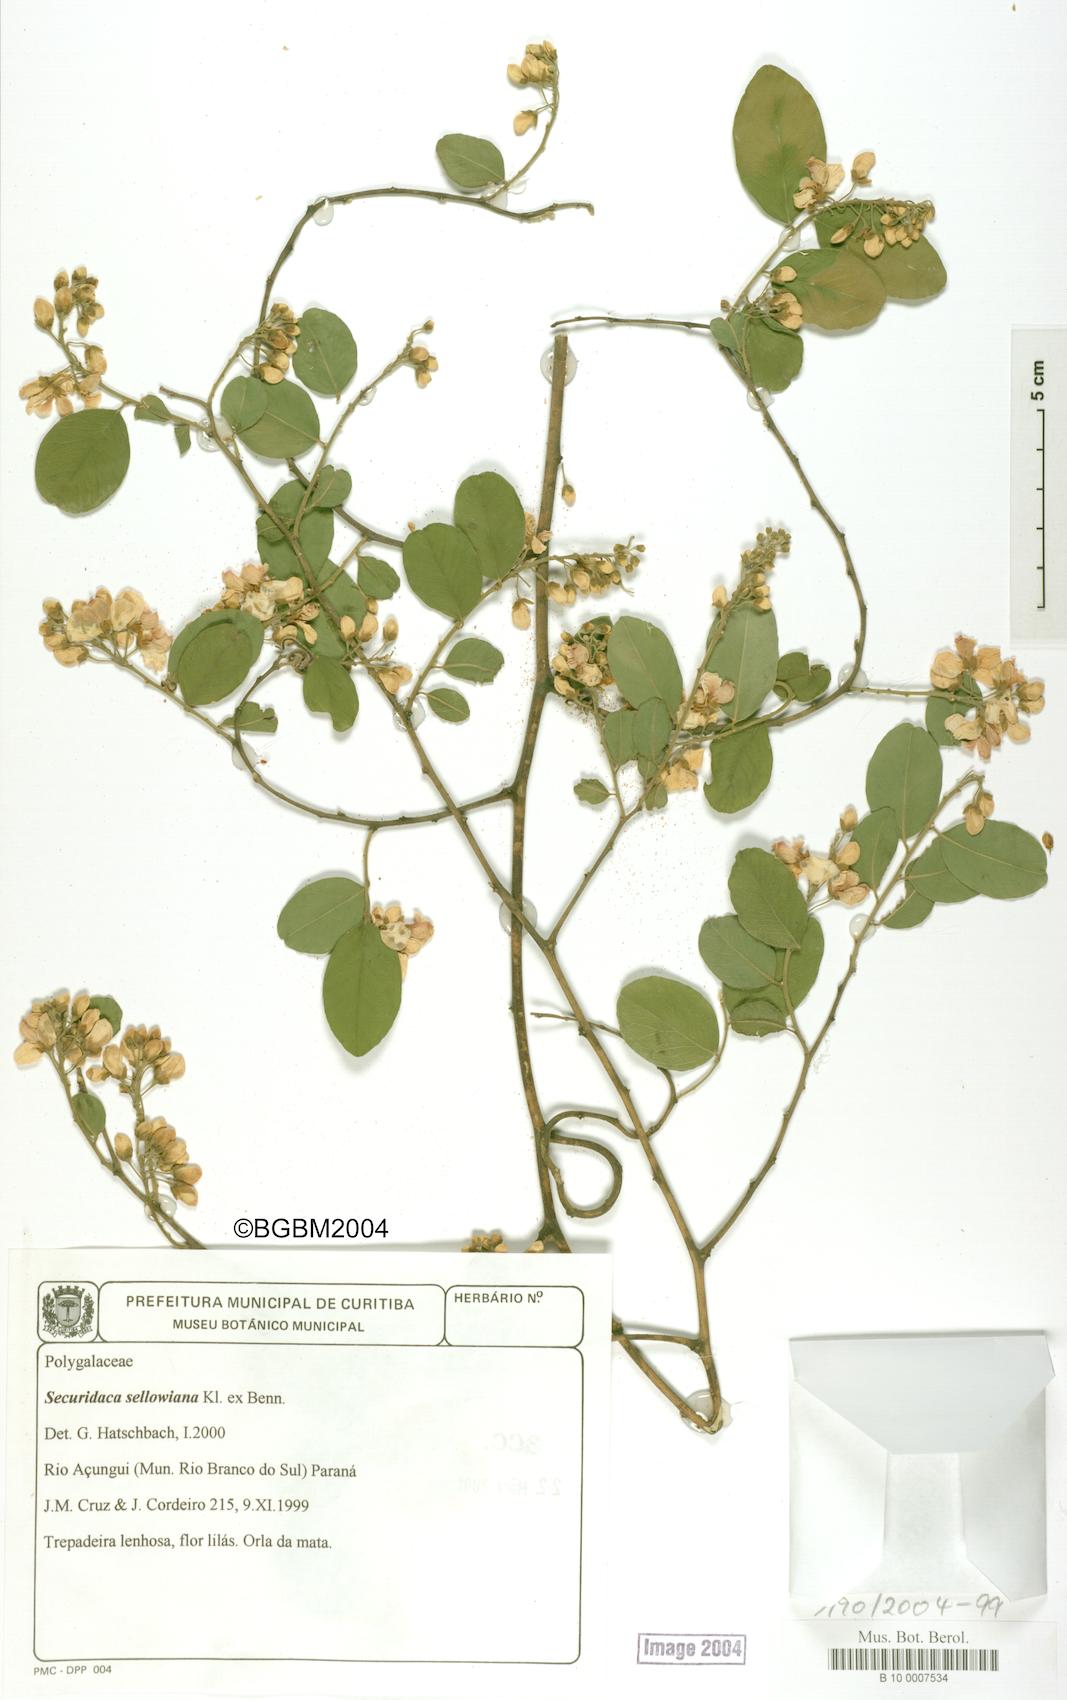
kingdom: Plantae
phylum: Tracheophyta
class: Magnoliopsida
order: Fabales
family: Polygalaceae
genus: Securidaca
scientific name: Securidaca lanceolata
